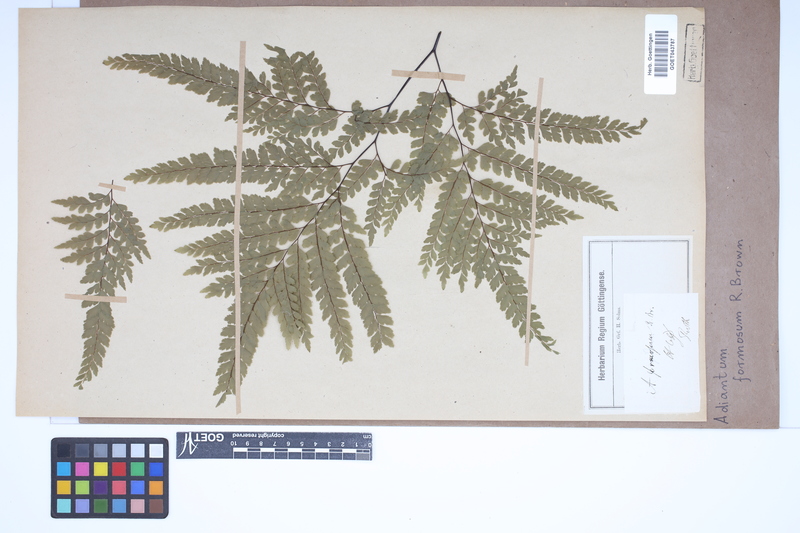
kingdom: Plantae
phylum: Tracheophyta
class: Polypodiopsida
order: Polypodiales
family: Pteridaceae
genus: Adiantum
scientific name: Adiantum formosum
